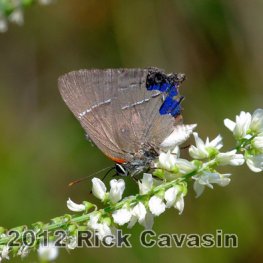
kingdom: Animalia
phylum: Arthropoda
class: Insecta
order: Lepidoptera
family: Lycaenidae
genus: Parrhasius
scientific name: Parrhasius m-album
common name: White-m Hairstreak
